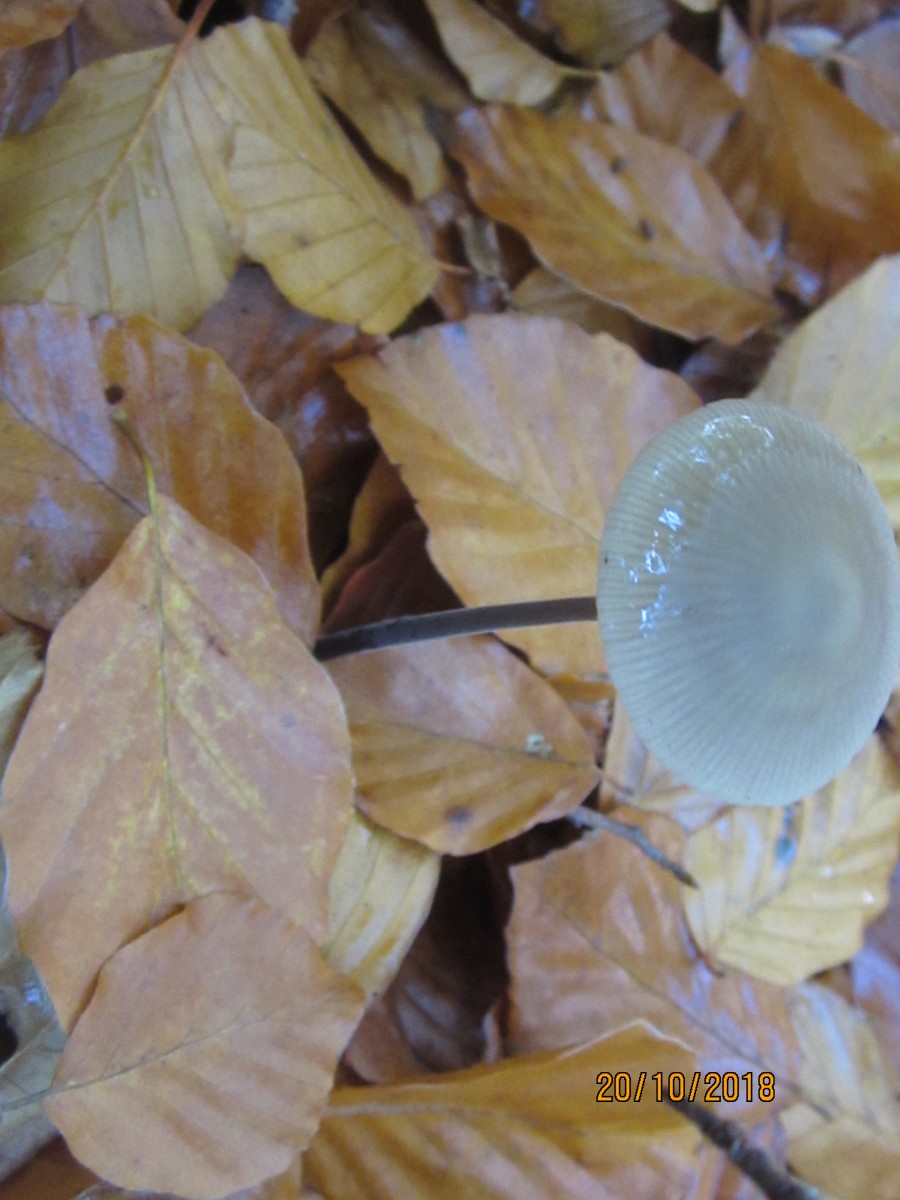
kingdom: Fungi
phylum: Basidiomycota
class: Agaricomycetes
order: Agaricales
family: Omphalotaceae
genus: Mycetinis
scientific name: Mycetinis alliaceus
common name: stor løghat
